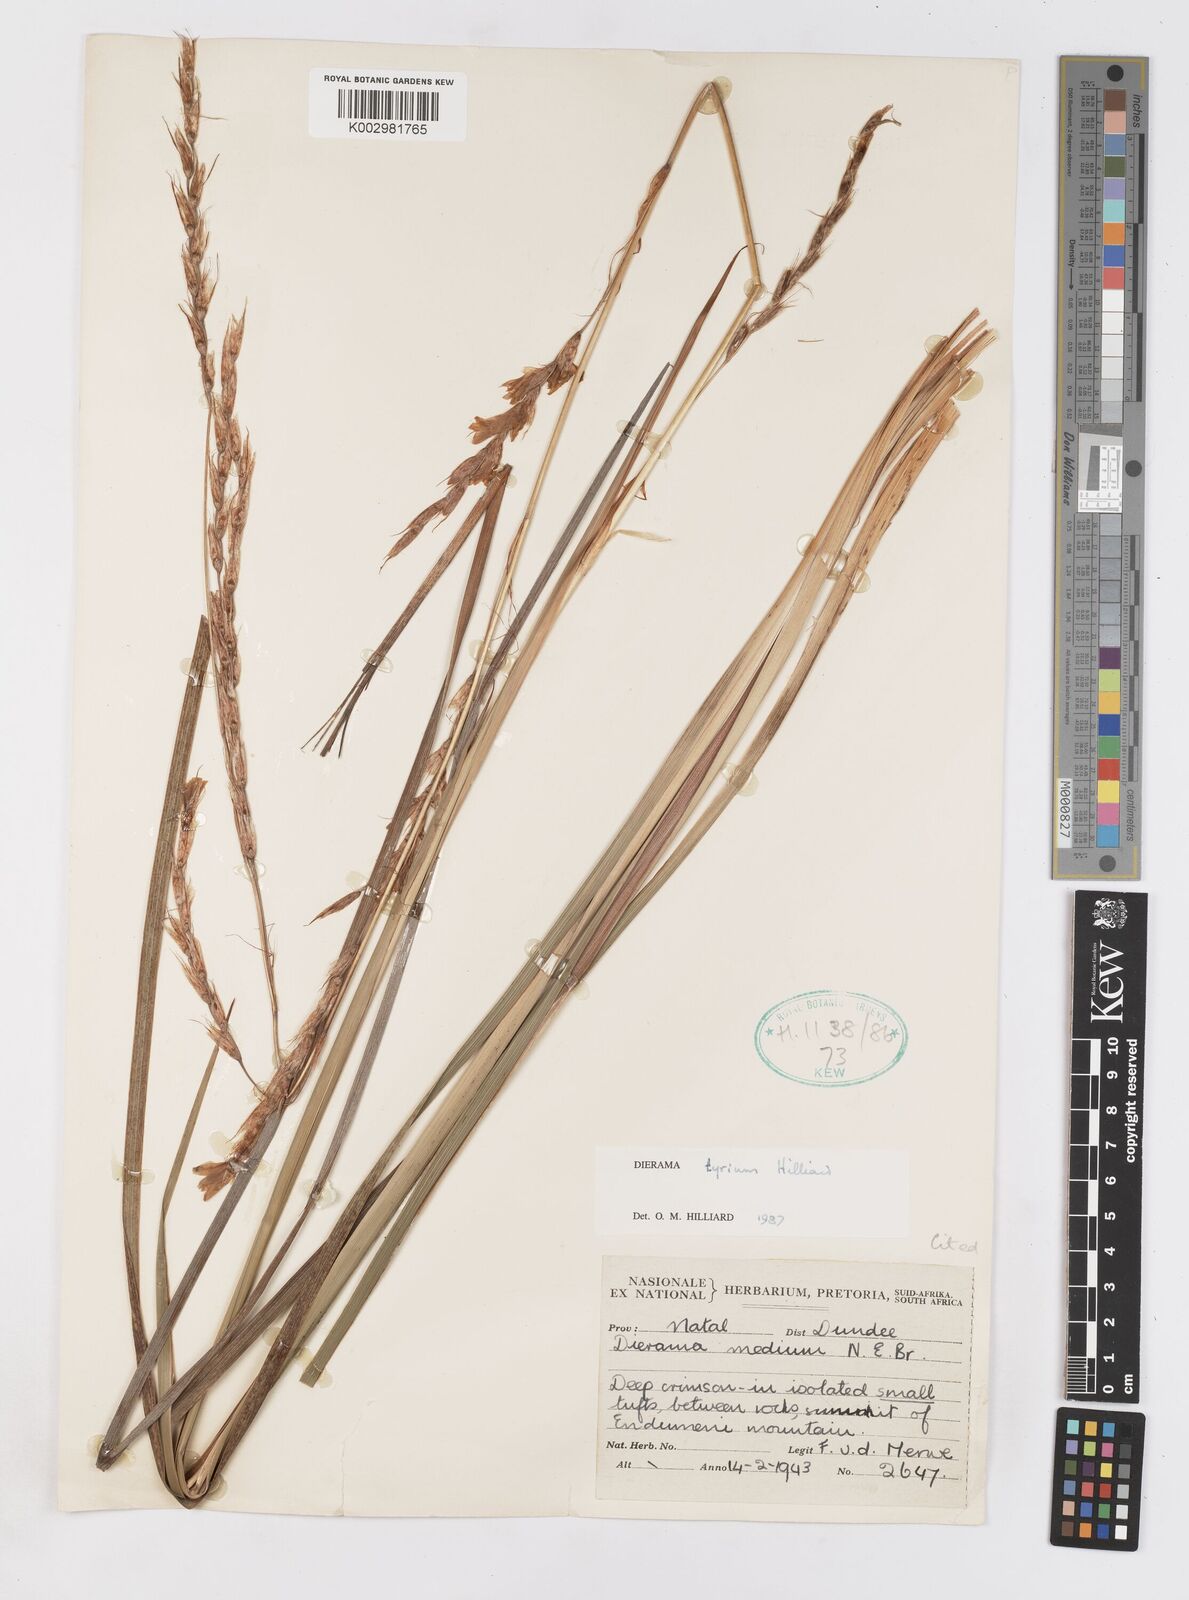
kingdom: Plantae
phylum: Tracheophyta
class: Liliopsida
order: Asparagales
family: Iridaceae
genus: Dierama
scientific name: Dierama tyrium
